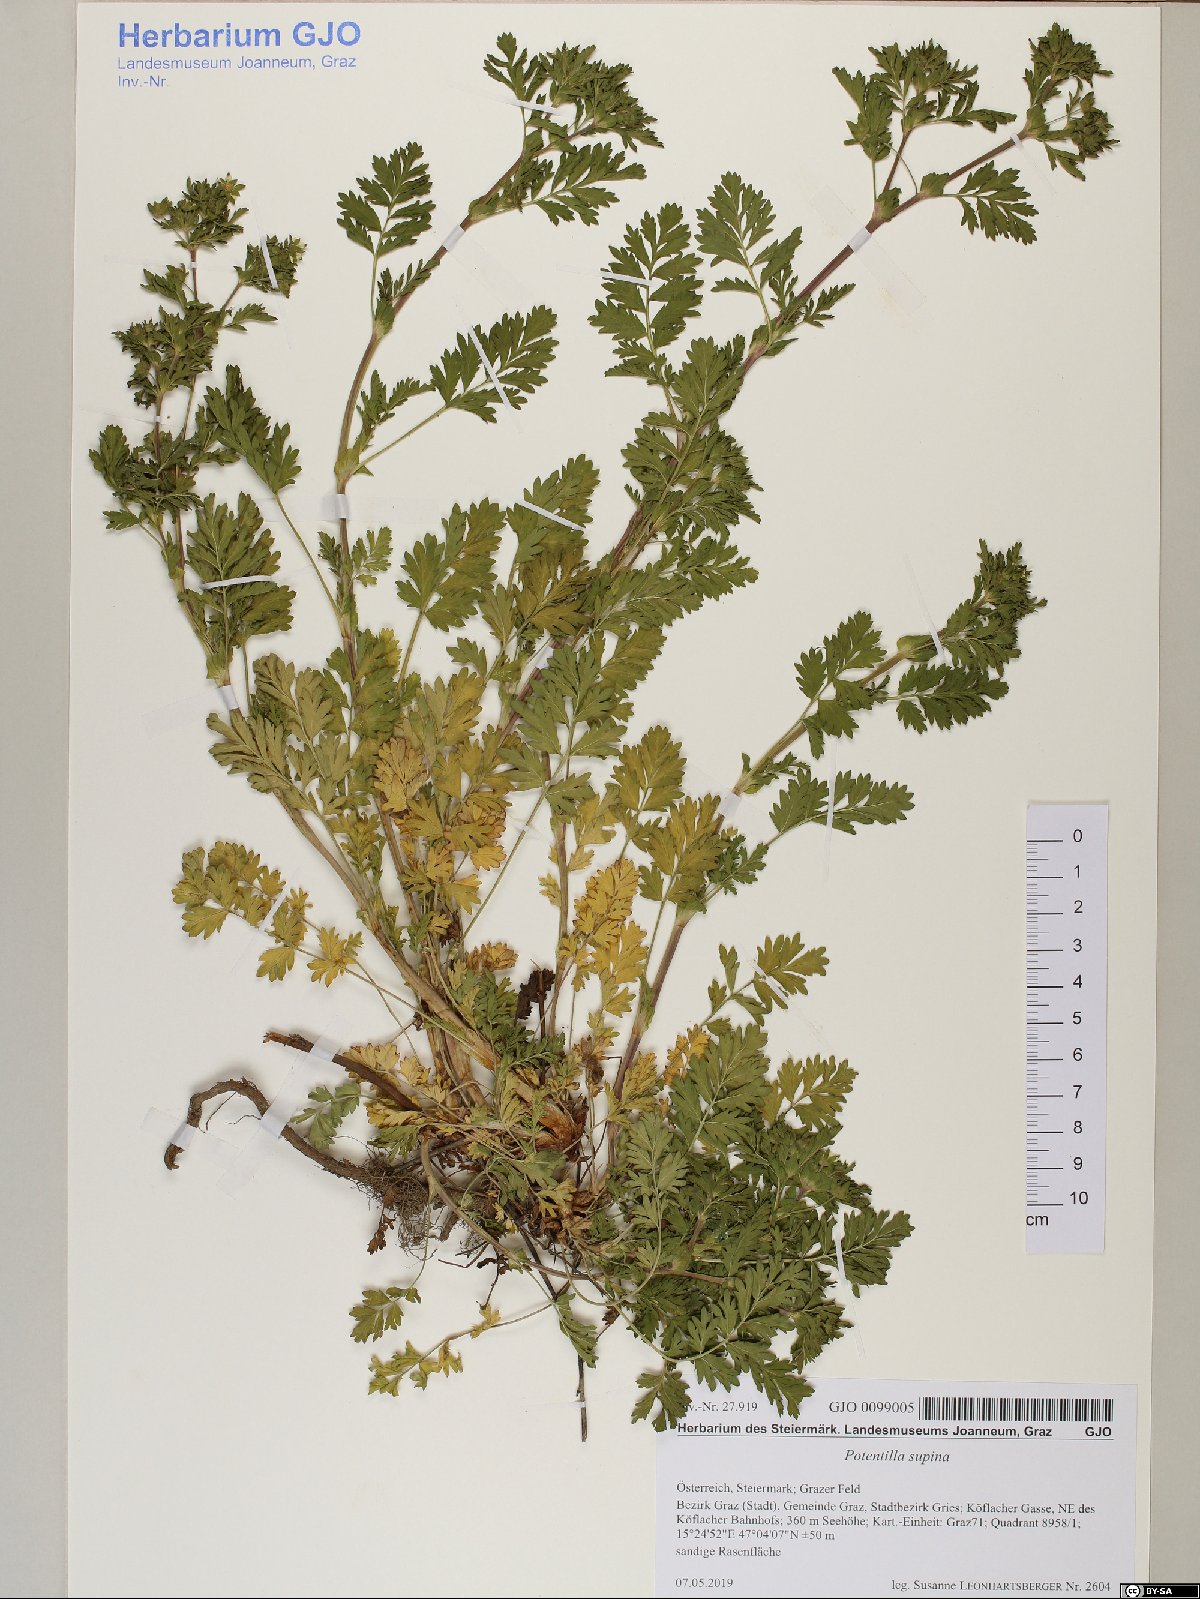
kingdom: Plantae
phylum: Tracheophyta
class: Magnoliopsida
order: Rosales
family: Rosaceae
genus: Potentilla
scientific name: Potentilla supina
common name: Prostrate cinquefoil
